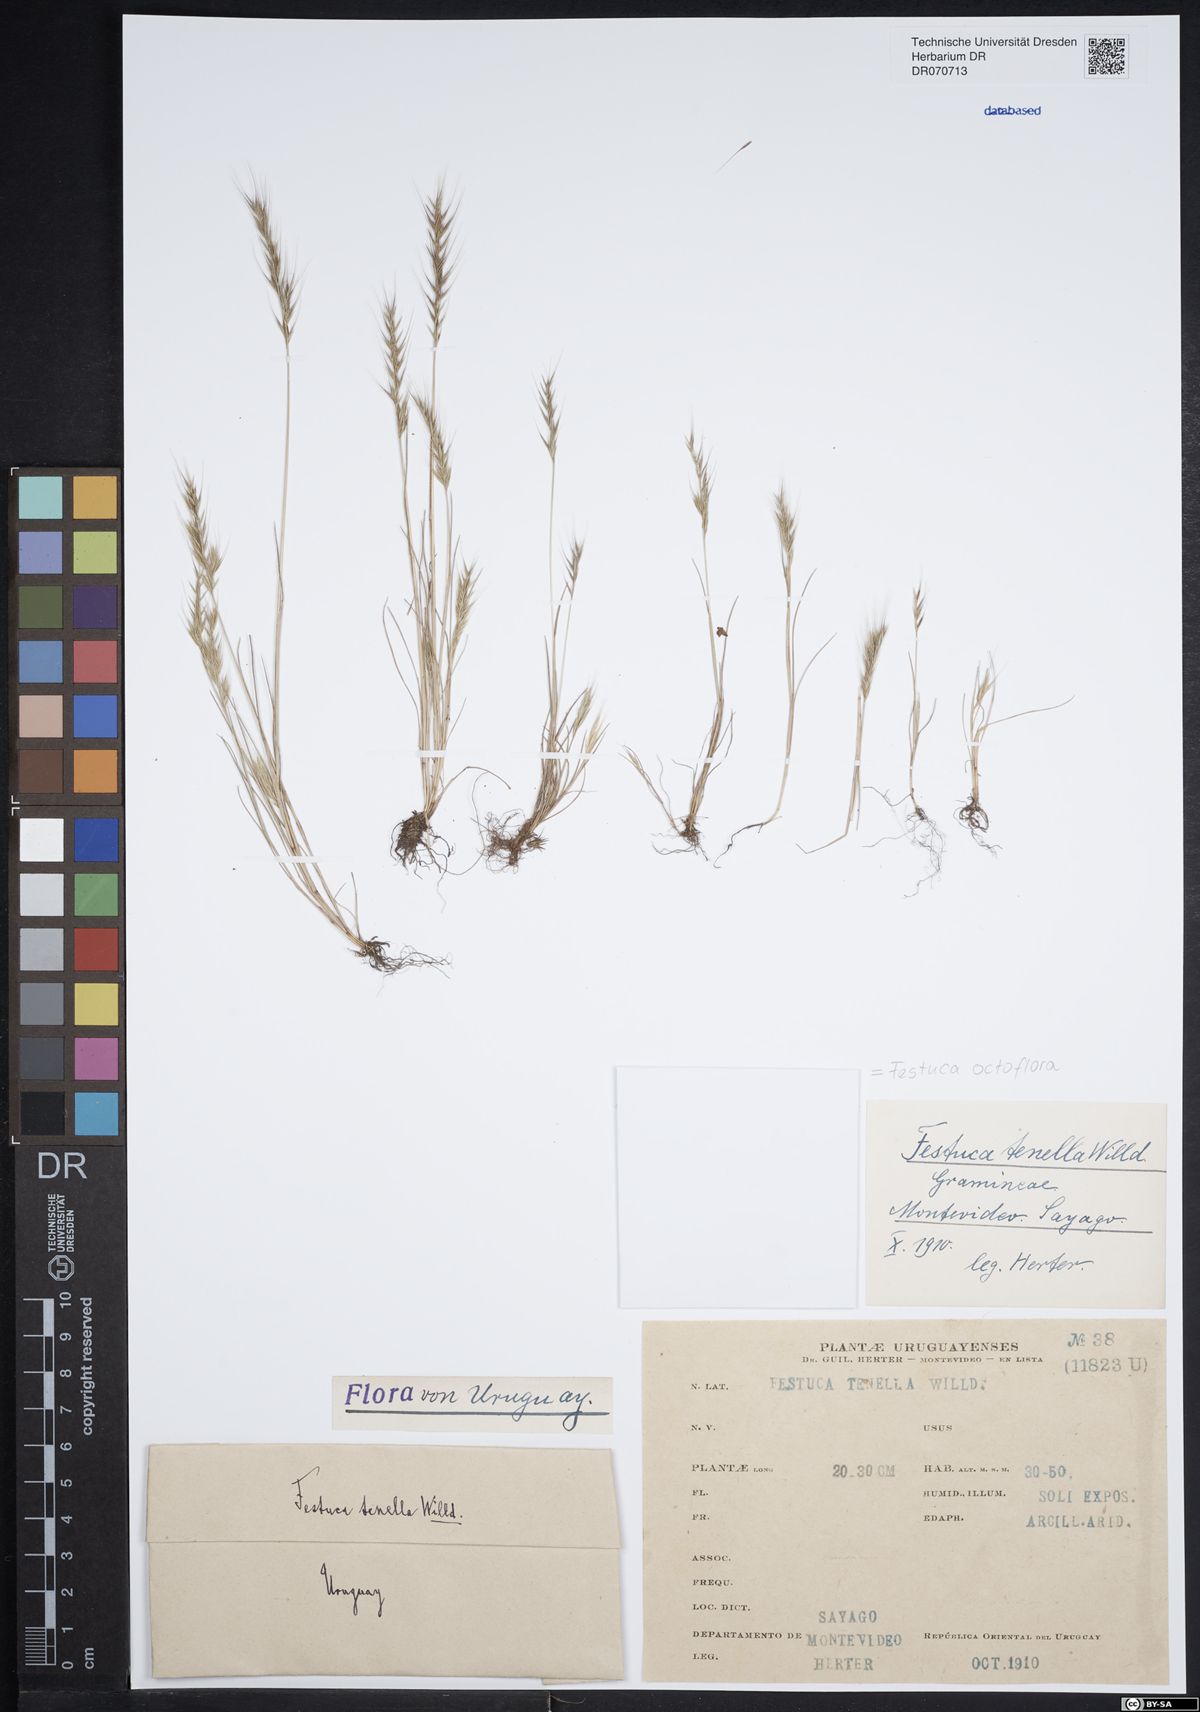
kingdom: Plantae
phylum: Tracheophyta
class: Liliopsida
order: Poales
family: Poaceae
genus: Festuca
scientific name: Festuca octoflora
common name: Sixweeks grass
